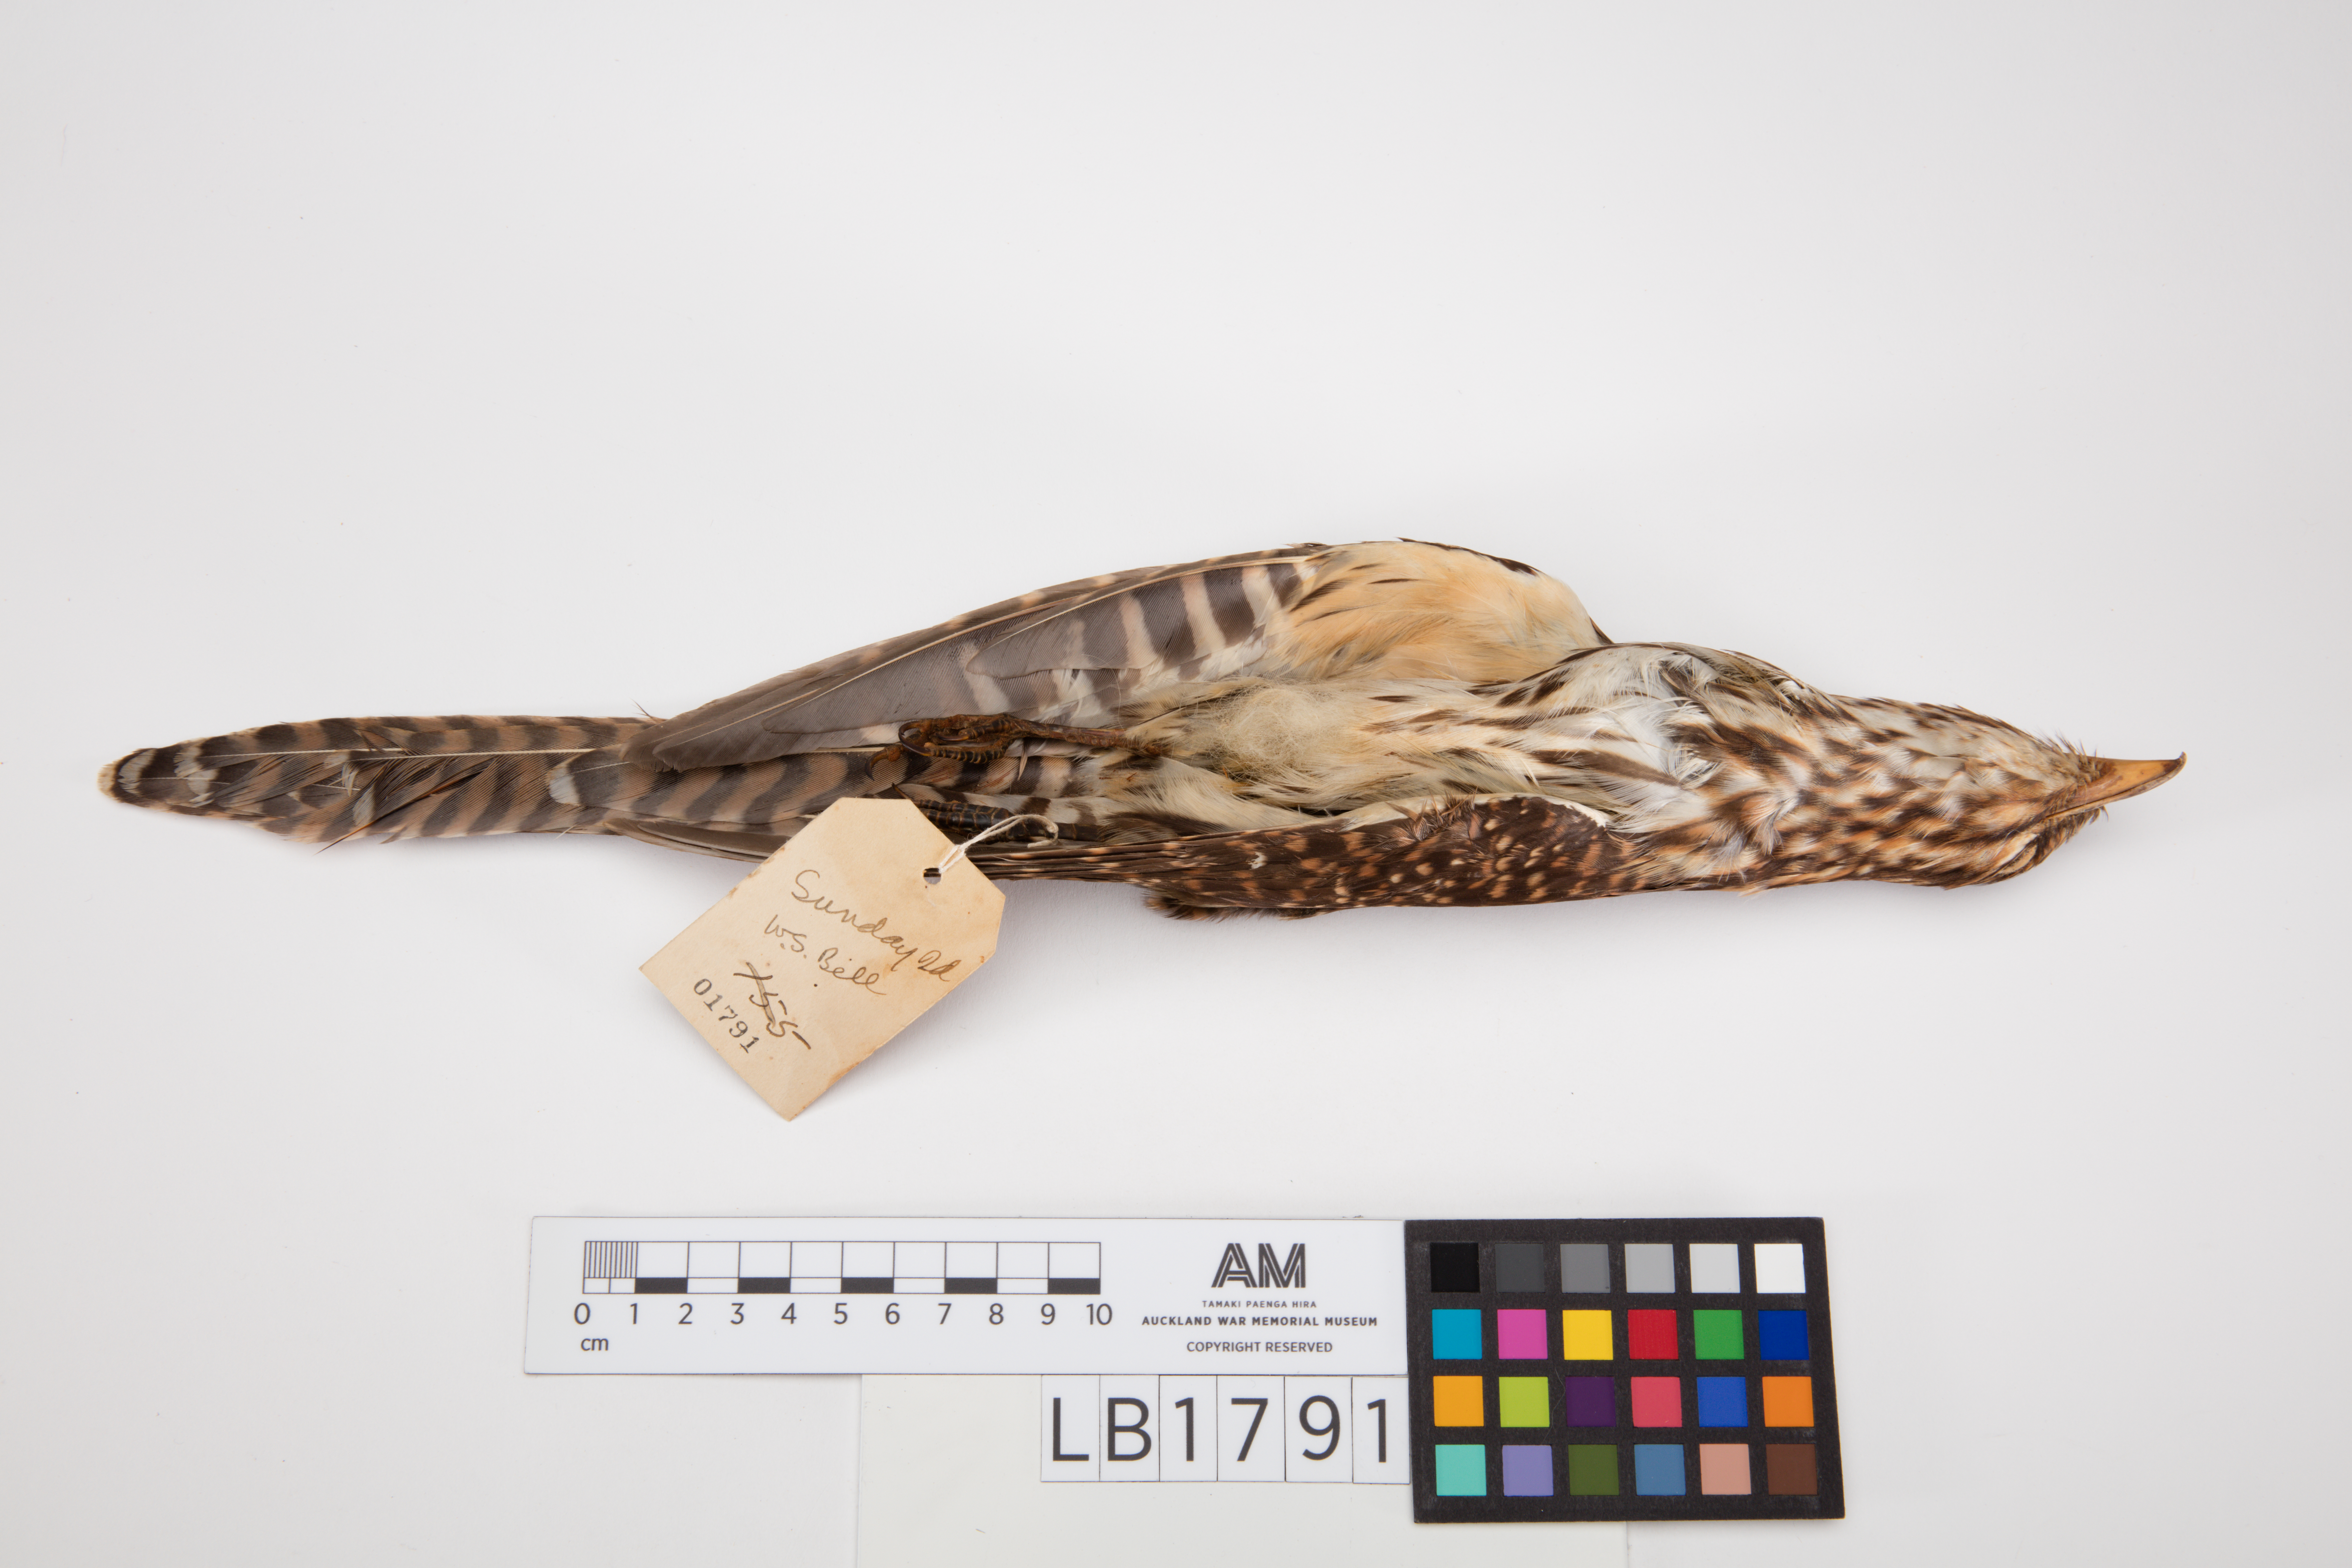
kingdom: Animalia
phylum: Chordata
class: Aves
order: Cuculiformes
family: Cuculidae
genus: Urodynamis
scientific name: Urodynamis taitensis
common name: Long-tailed koel
